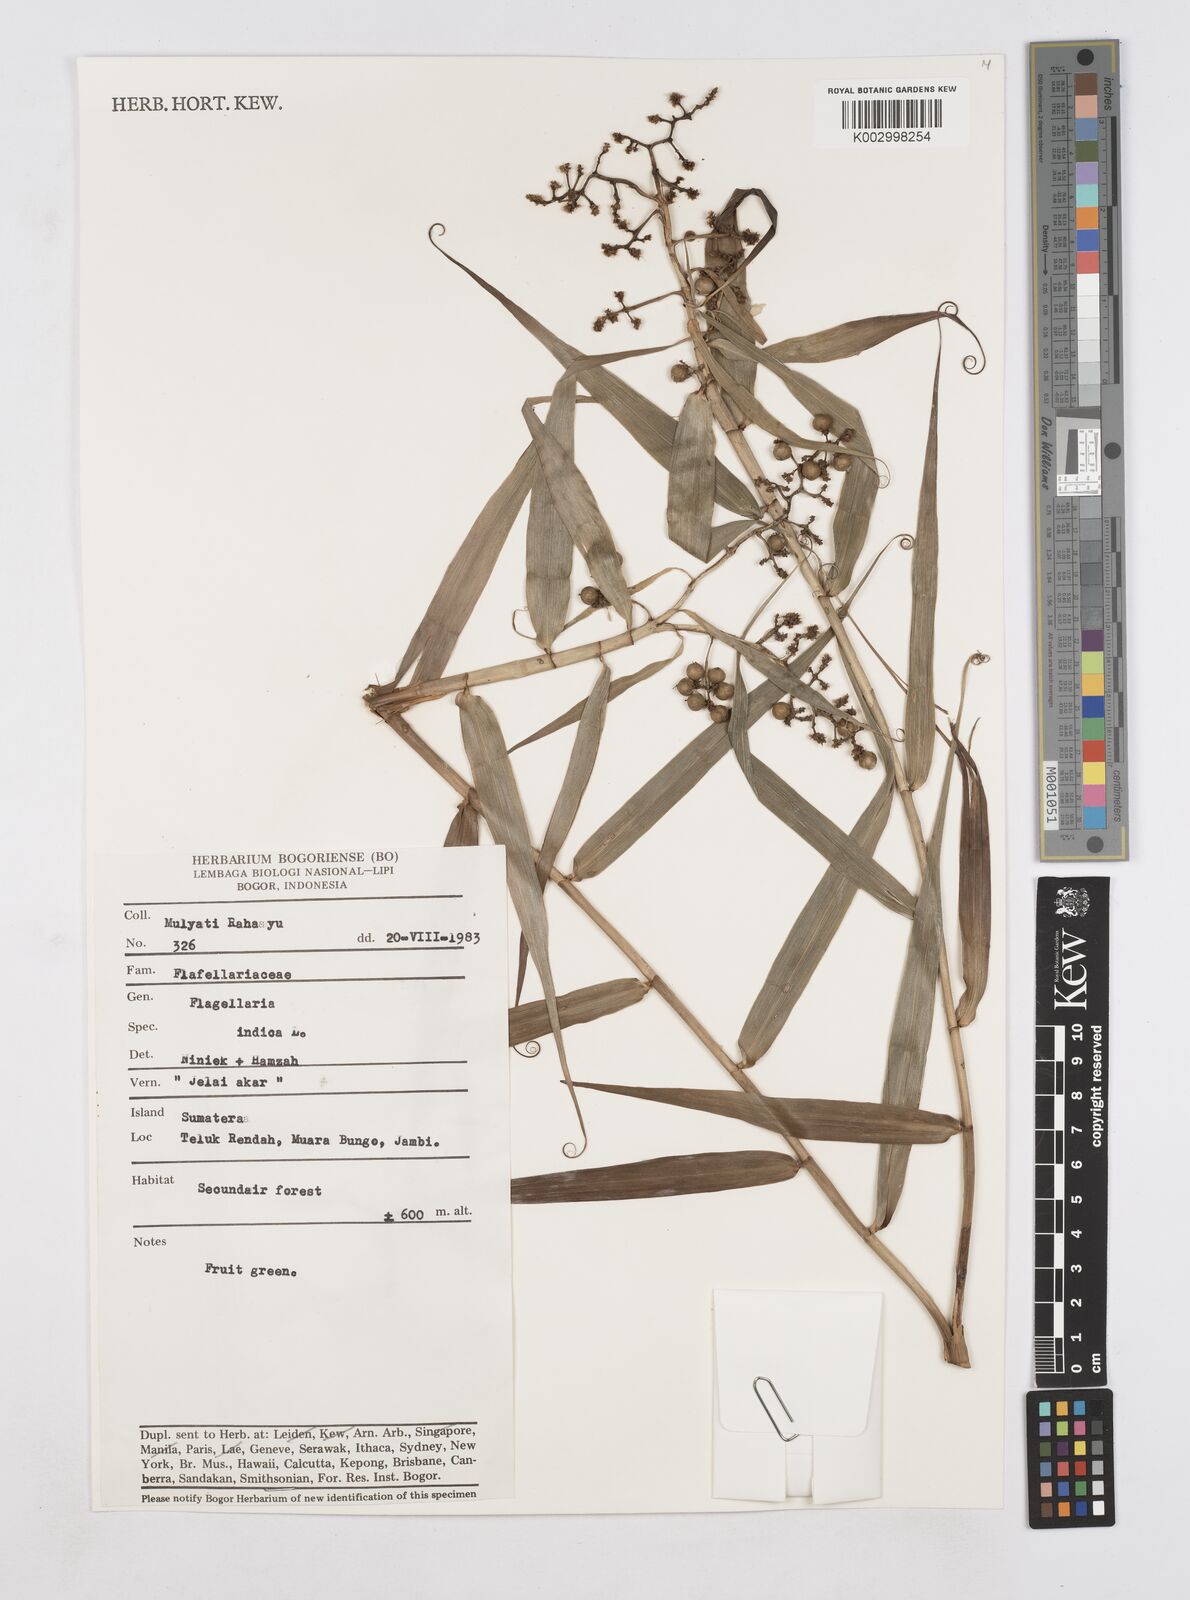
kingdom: Plantae
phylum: Tracheophyta
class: Liliopsida
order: Poales
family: Flagellariaceae
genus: Flagellaria
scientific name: Flagellaria indica
